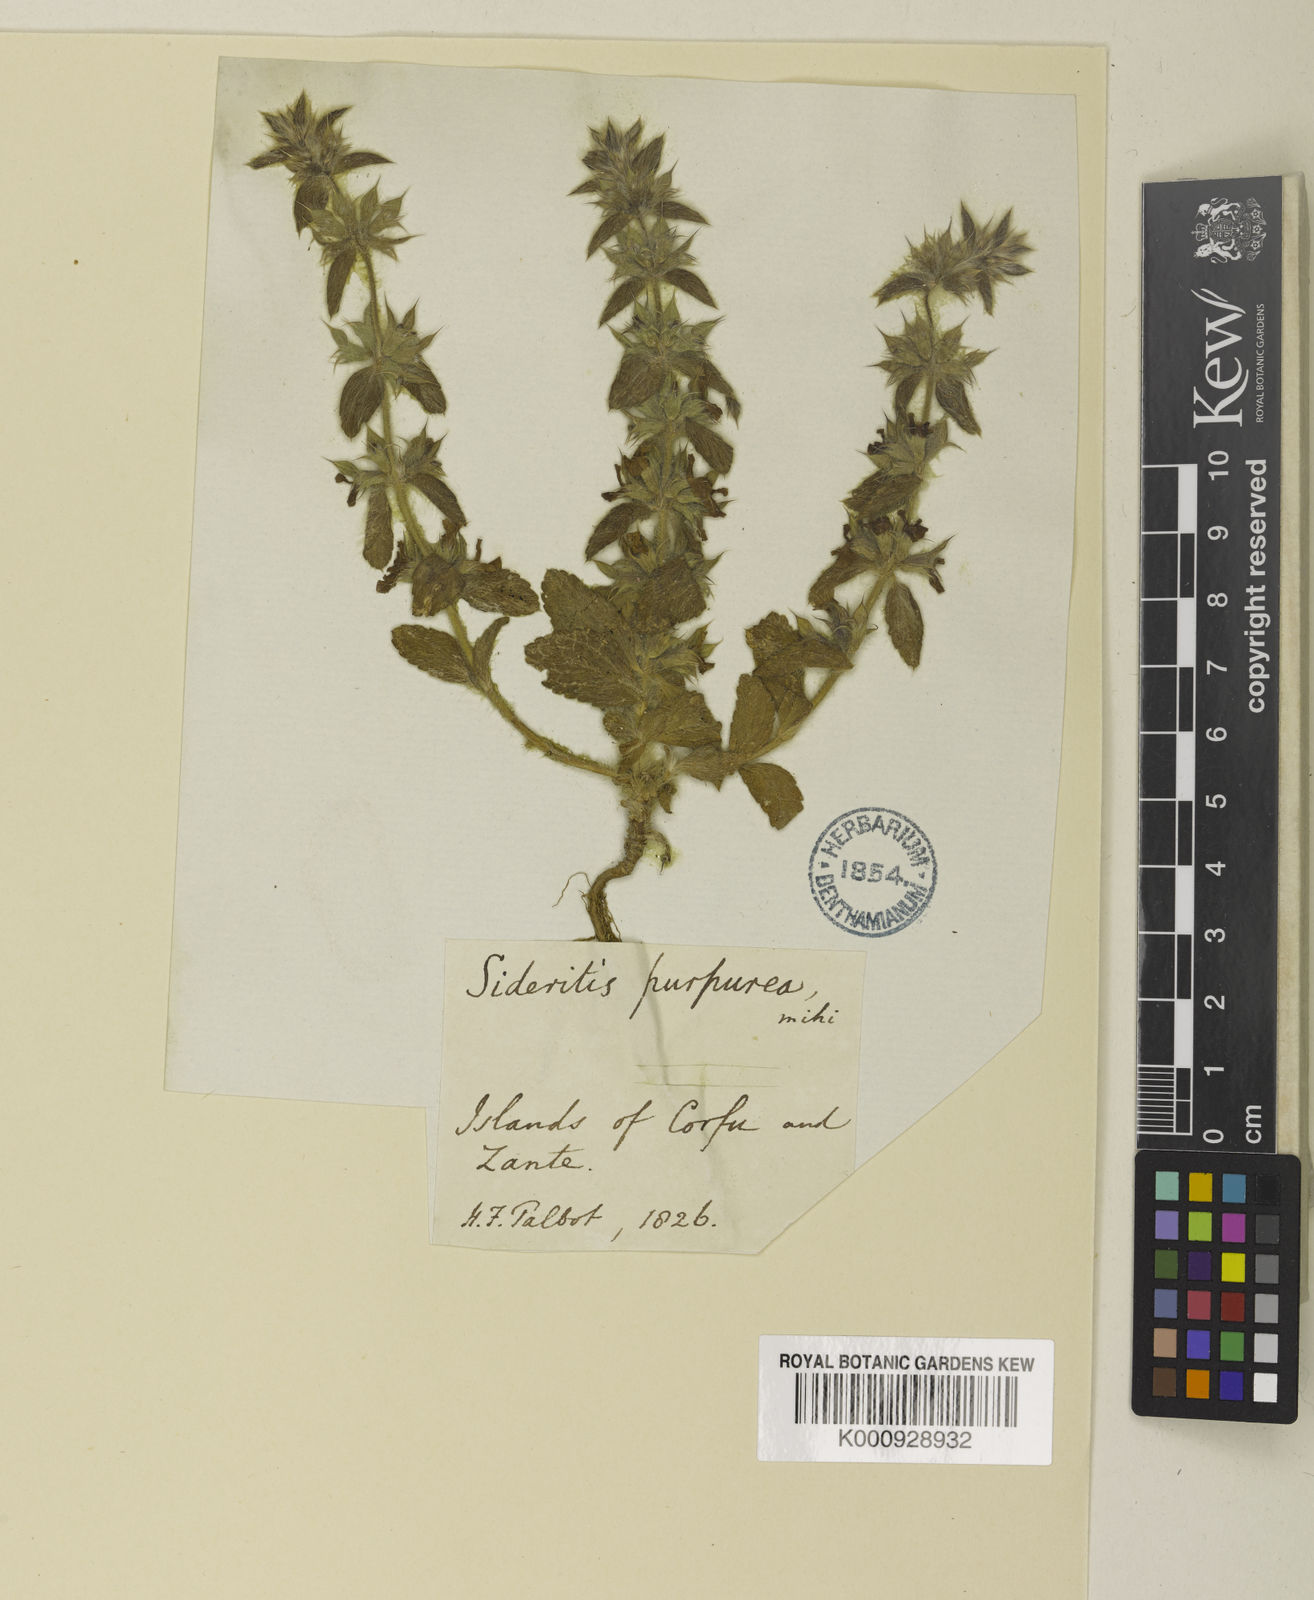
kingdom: Plantae
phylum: Tracheophyta
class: Magnoliopsida
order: Lamiales
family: Lamiaceae
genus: Sideritis
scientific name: Sideritis romana
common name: Simplebeak ironwort
